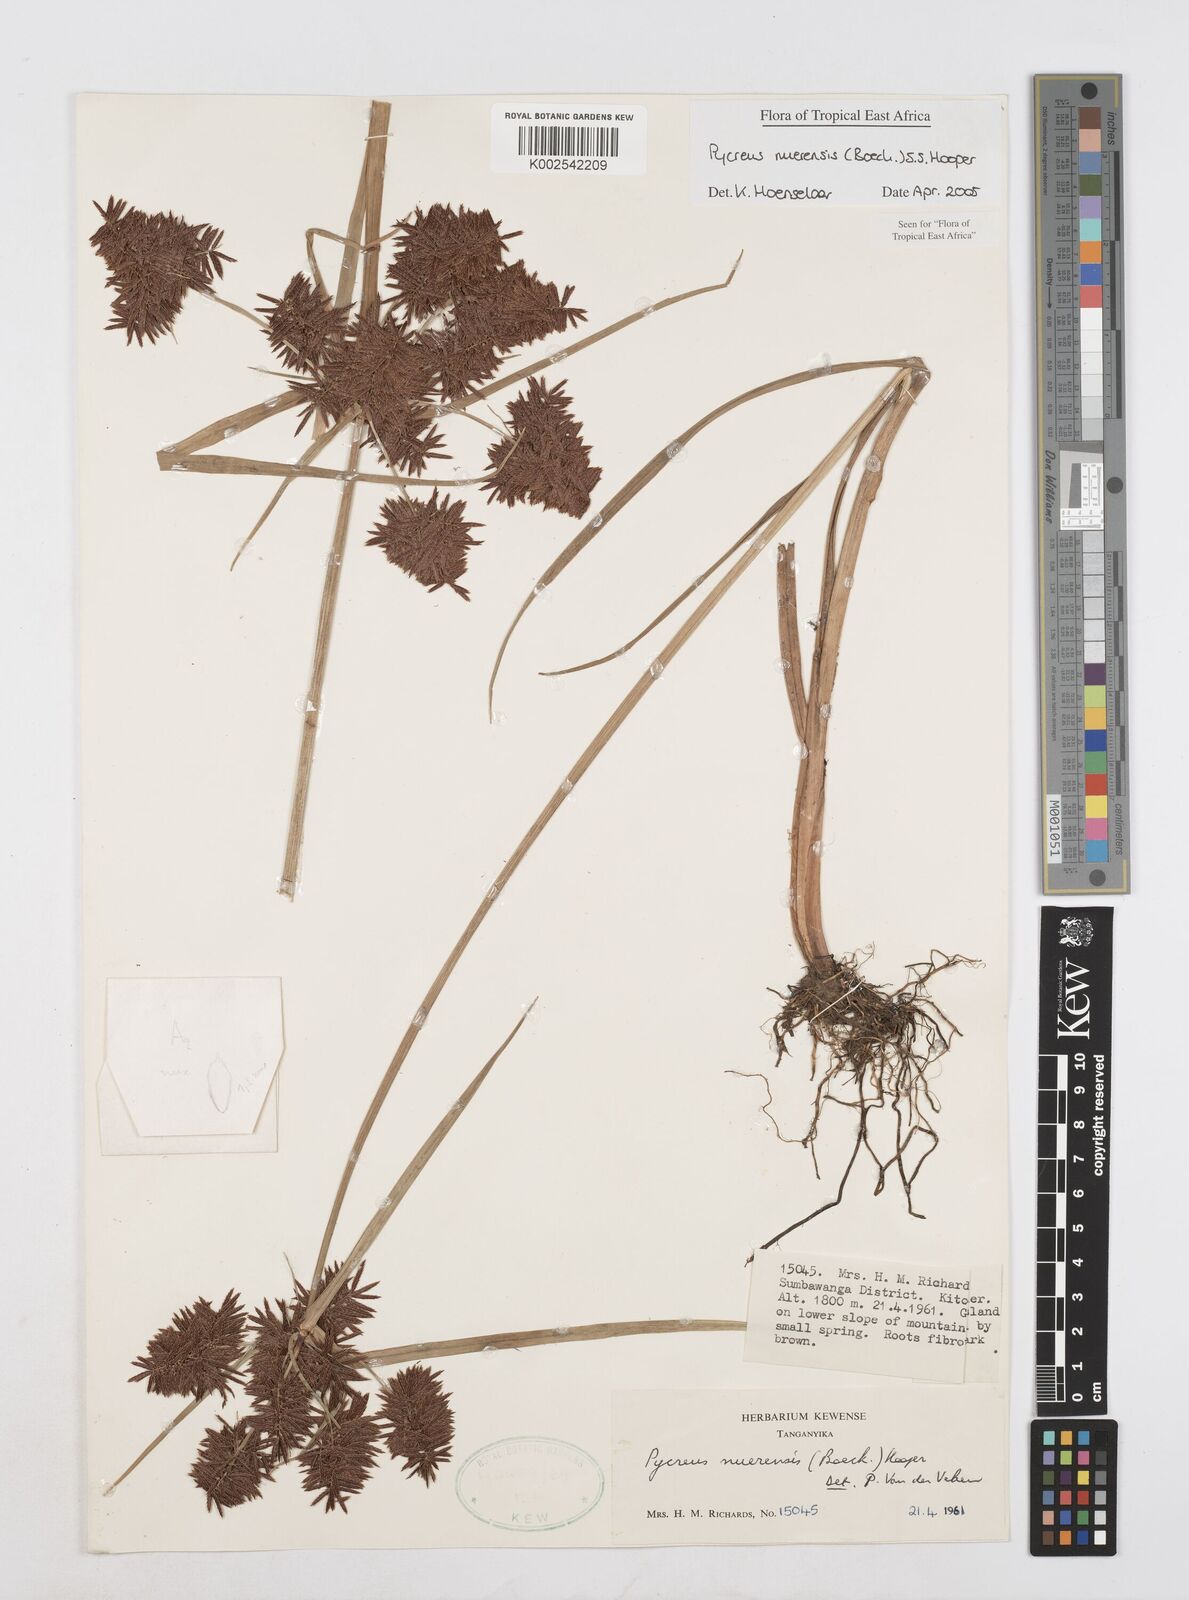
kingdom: Plantae
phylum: Tracheophyta
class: Liliopsida
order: Poales
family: Cyperaceae
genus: Cyperus
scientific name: Cyperus nuerensis
